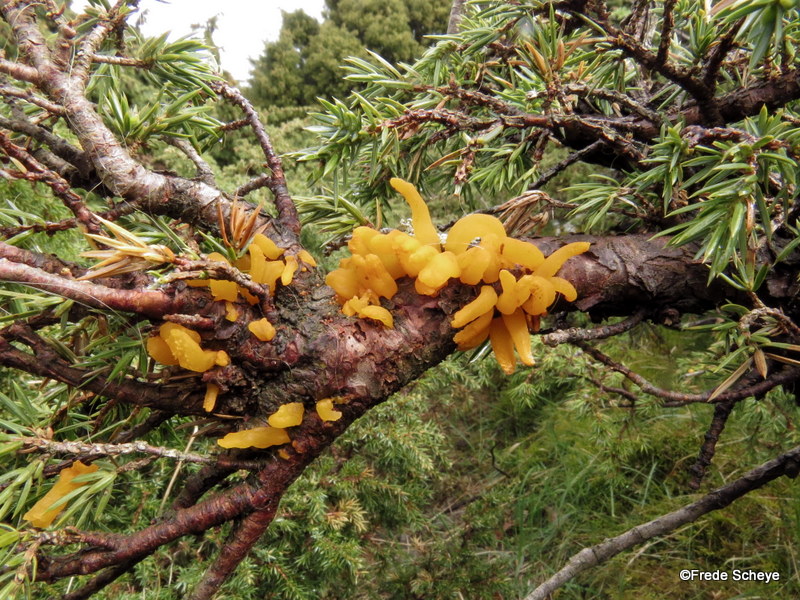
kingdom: Fungi
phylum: Basidiomycota
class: Pucciniomycetes
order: Pucciniales
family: Gymnosporangiaceae
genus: Gymnosporangium
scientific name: Gymnosporangium clavariiforme
